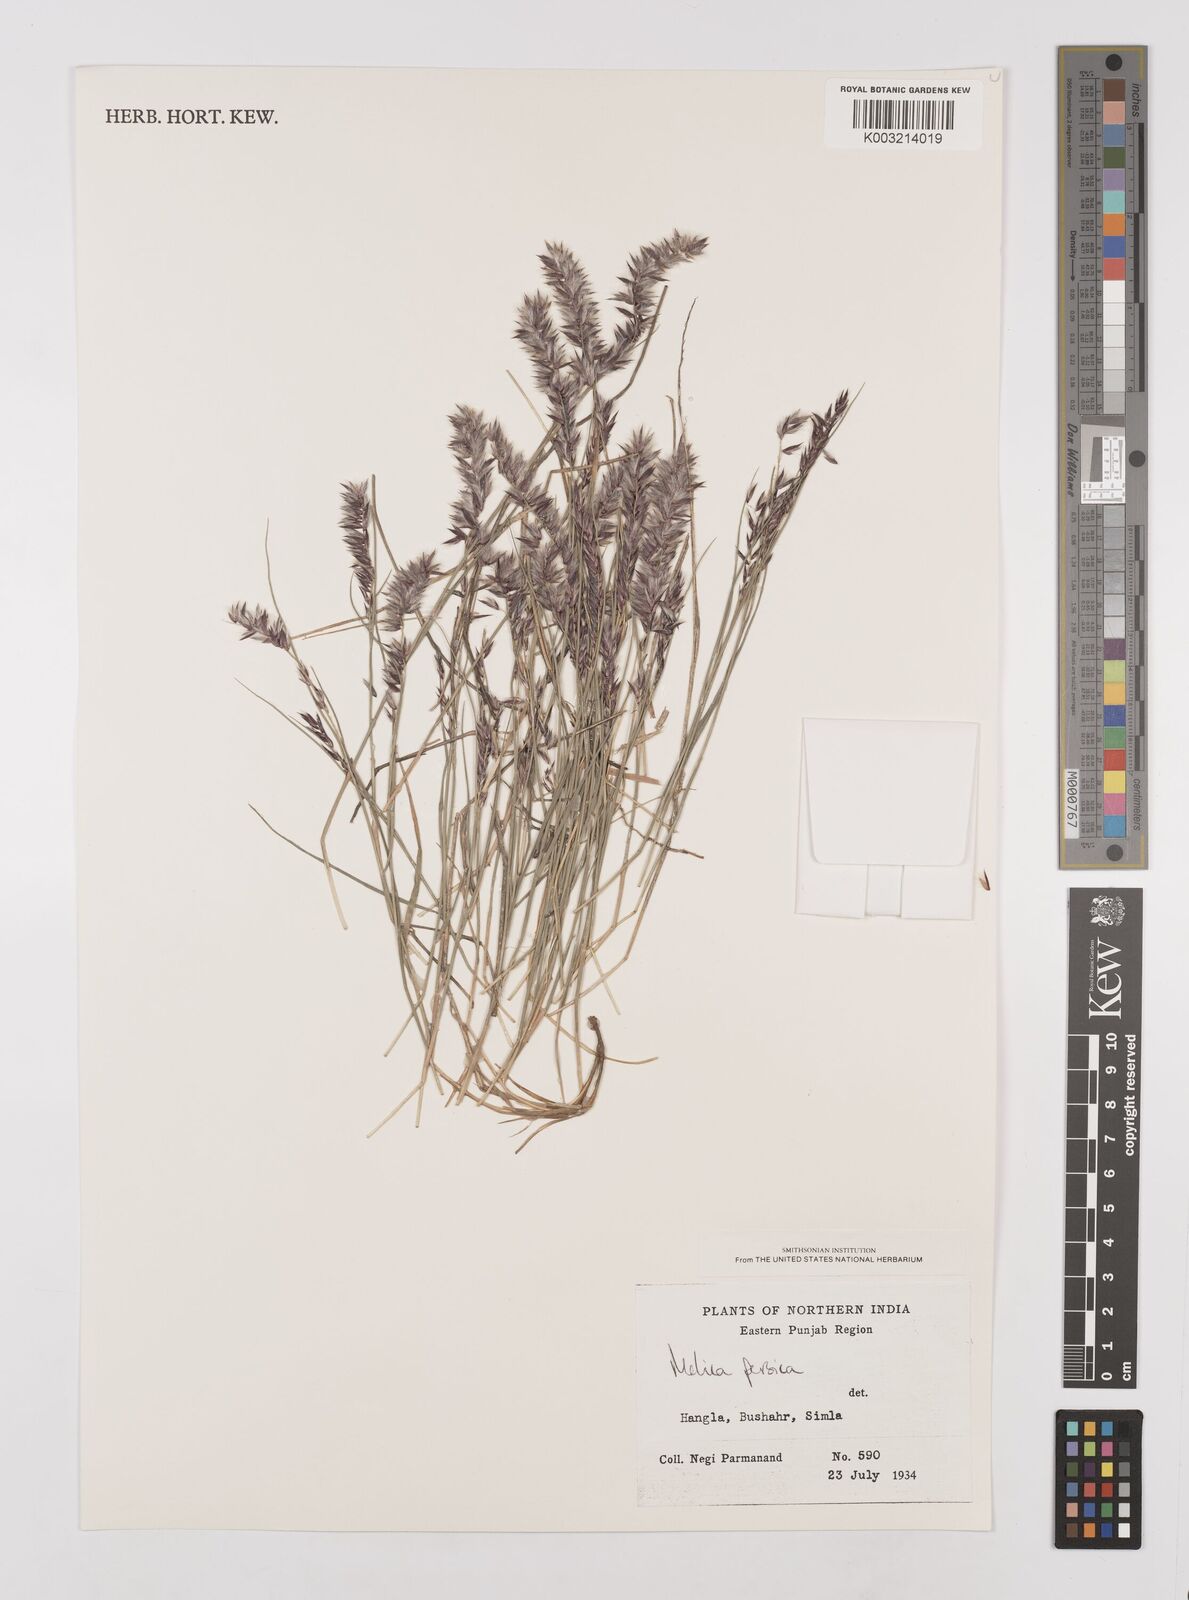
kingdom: Plantae
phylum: Tracheophyta
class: Liliopsida
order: Poales
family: Poaceae
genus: Melica
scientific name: Melica persica
